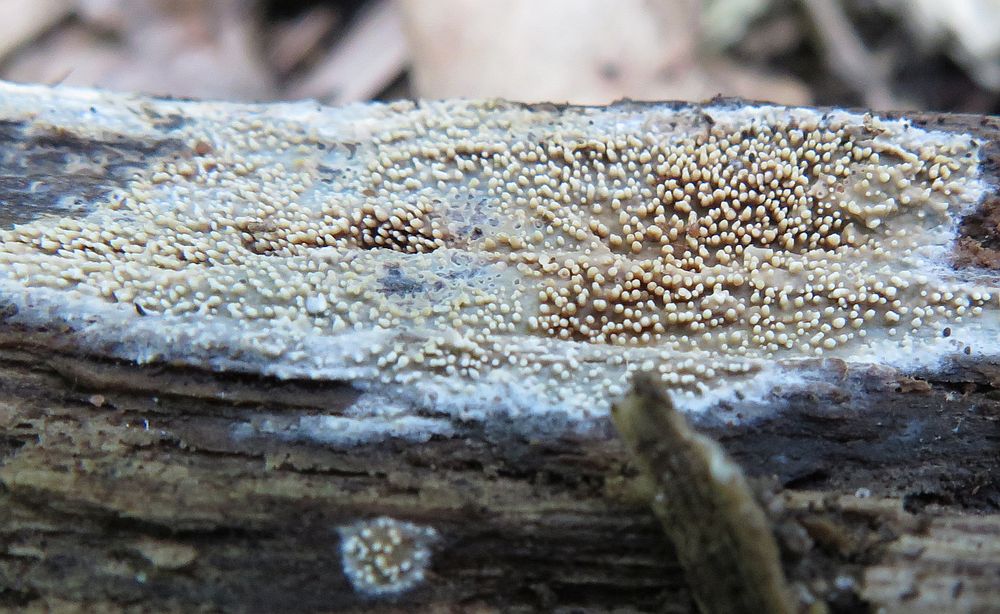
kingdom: Fungi
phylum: Basidiomycota
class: Agaricomycetes
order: Polyporales
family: Meruliaceae
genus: Mycoacia
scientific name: Mycoacia fuscoatra
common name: mørk vokspig
